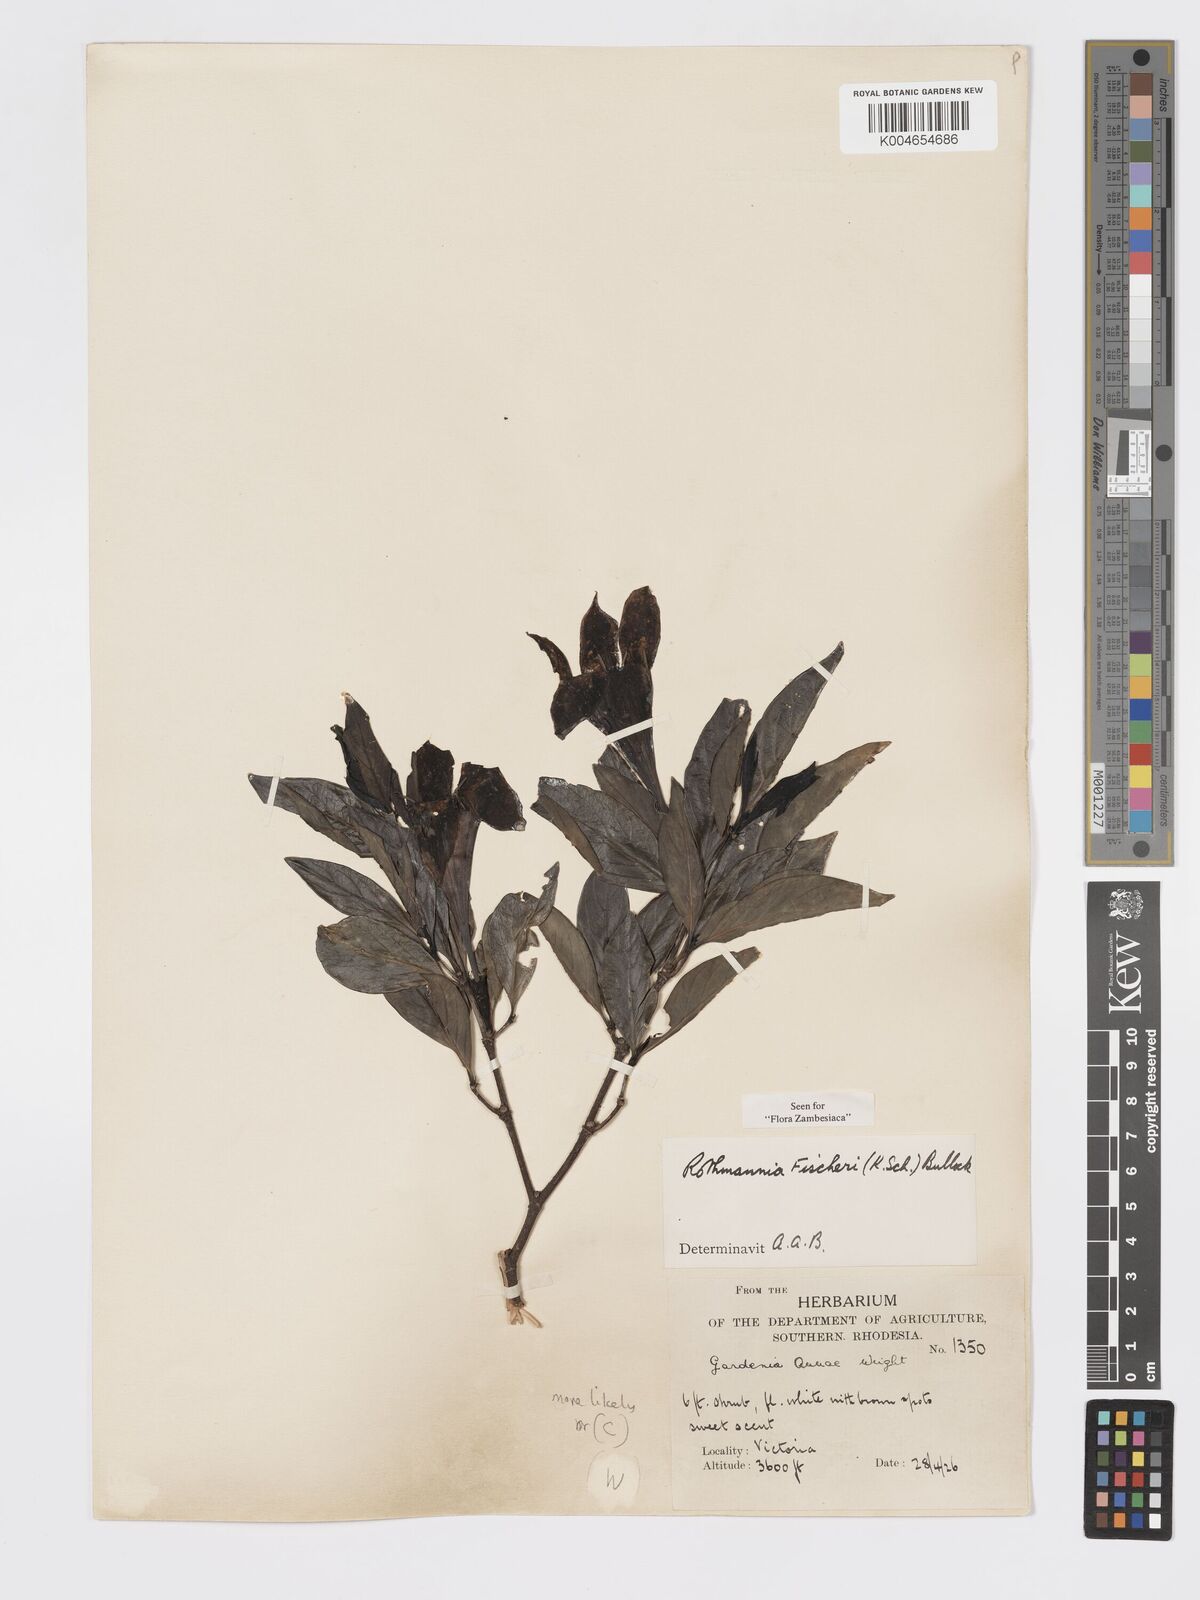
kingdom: Plantae
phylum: Tracheophyta
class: Magnoliopsida
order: Gentianales
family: Rubiaceae
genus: Rothmannia
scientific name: Rothmannia fischeri
